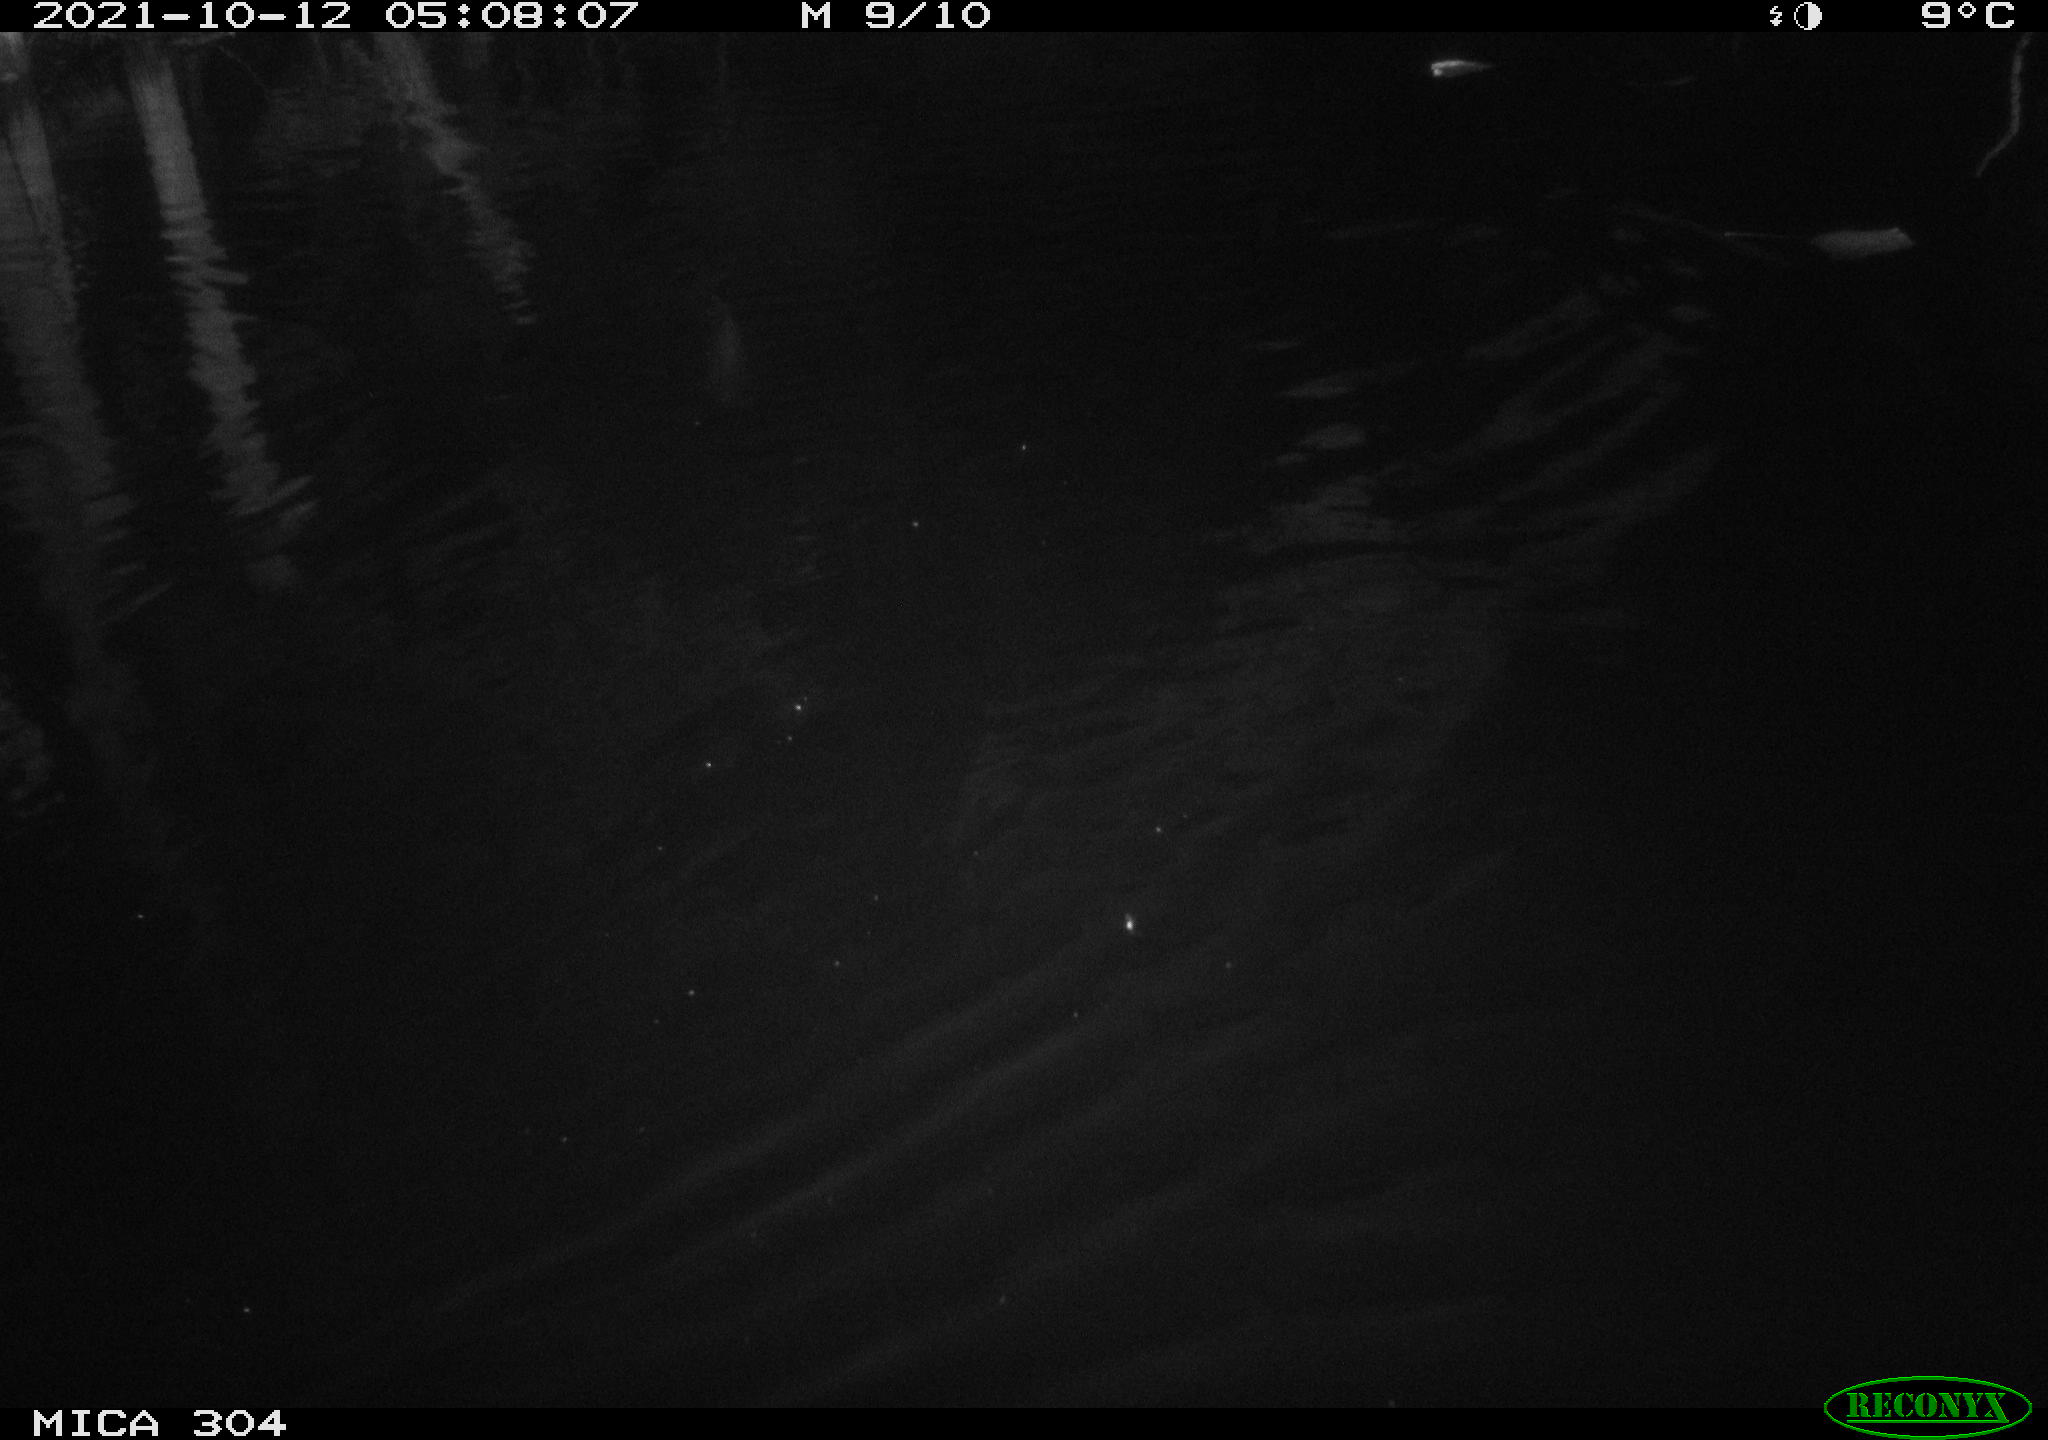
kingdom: Animalia
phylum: Chordata
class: Mammalia
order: Rodentia
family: Muridae
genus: Rattus
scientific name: Rattus norvegicus
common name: Brown rat
